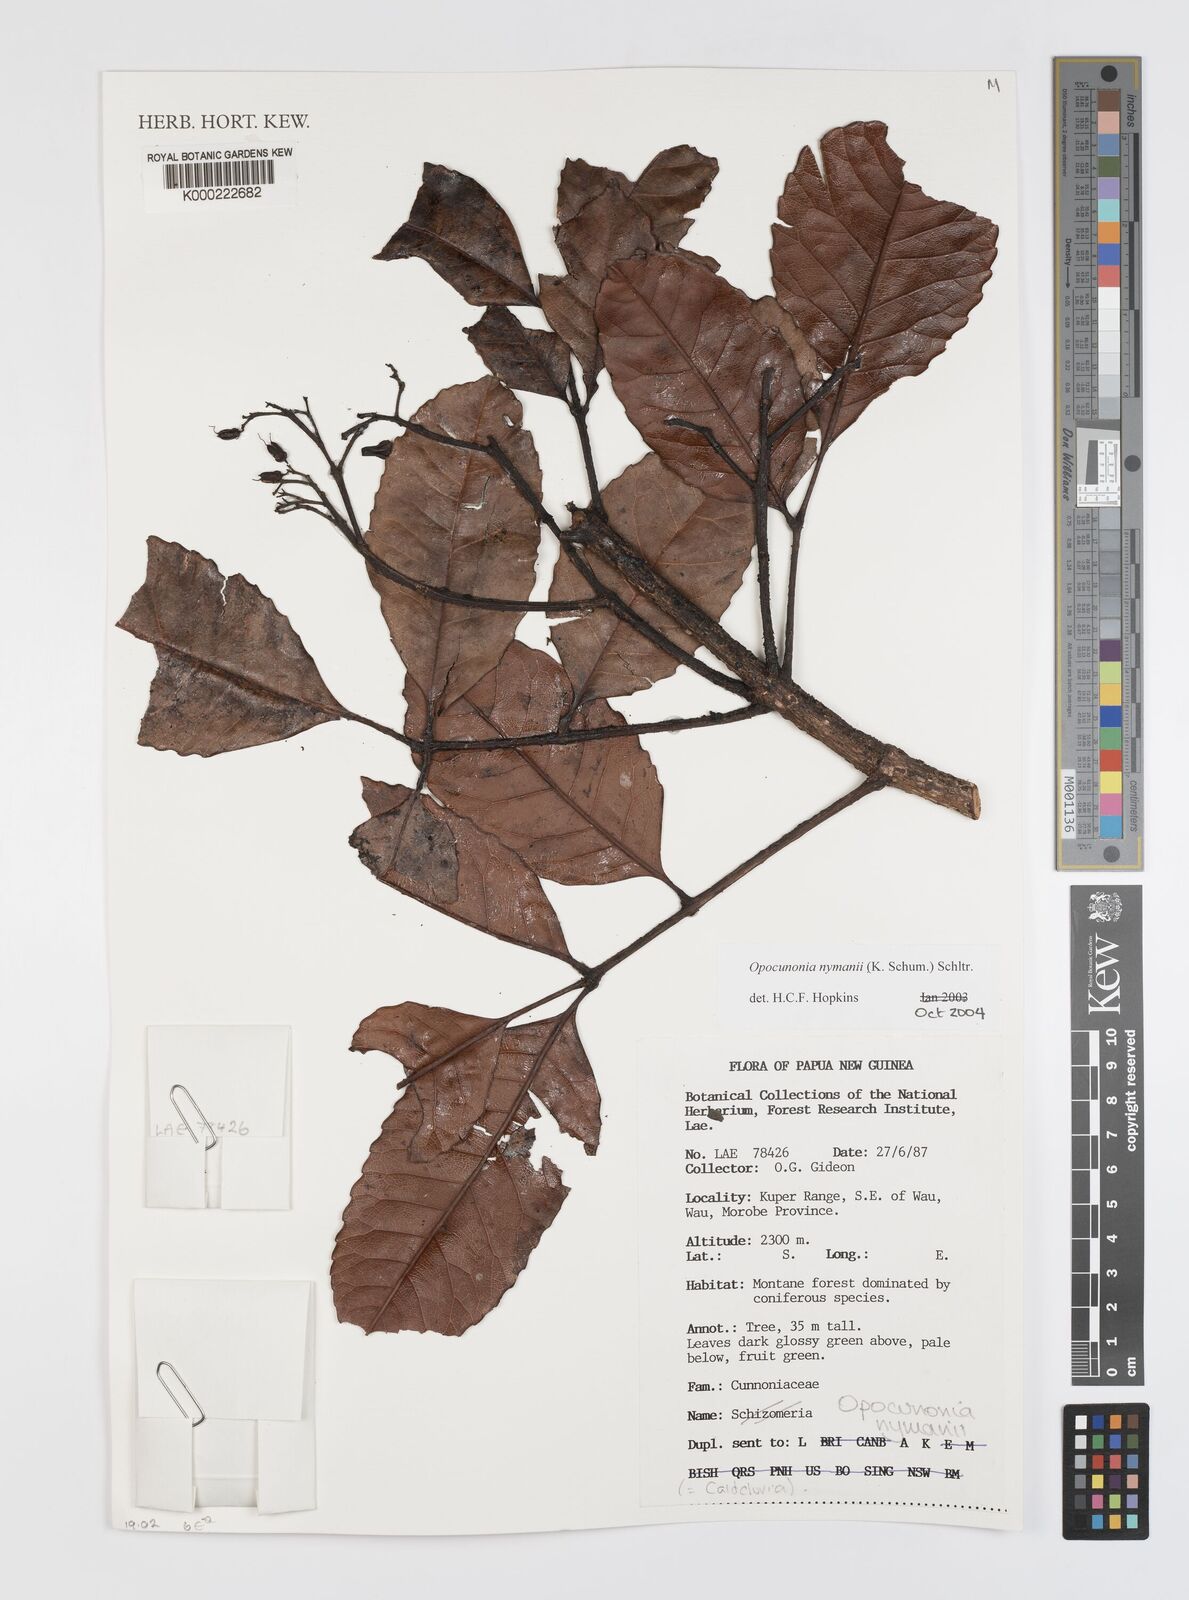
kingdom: Plantae
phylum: Tracheophyta
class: Magnoliopsida
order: Oxalidales
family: Cunoniaceae
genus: Opocunonia
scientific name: Opocunonia nymanii
